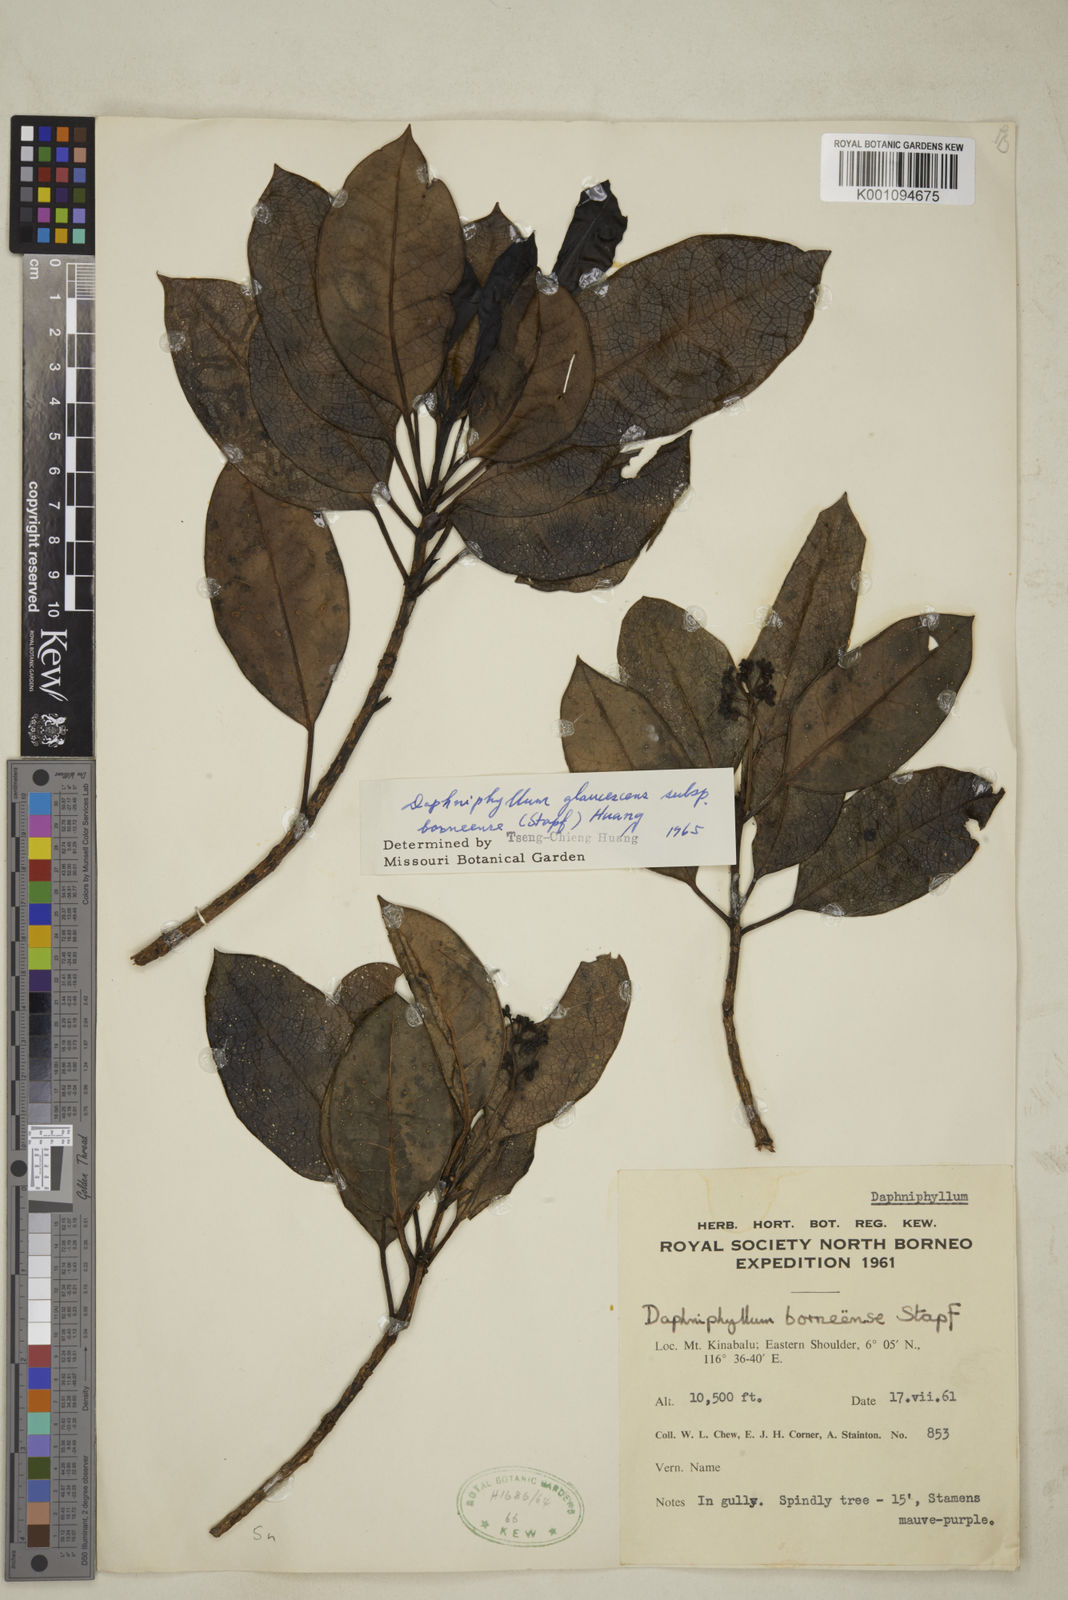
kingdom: Plantae
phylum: Tracheophyta
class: Magnoliopsida
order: Saxifragales
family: Daphniphyllaceae
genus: Daphniphyllum
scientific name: Daphniphyllum borneense
